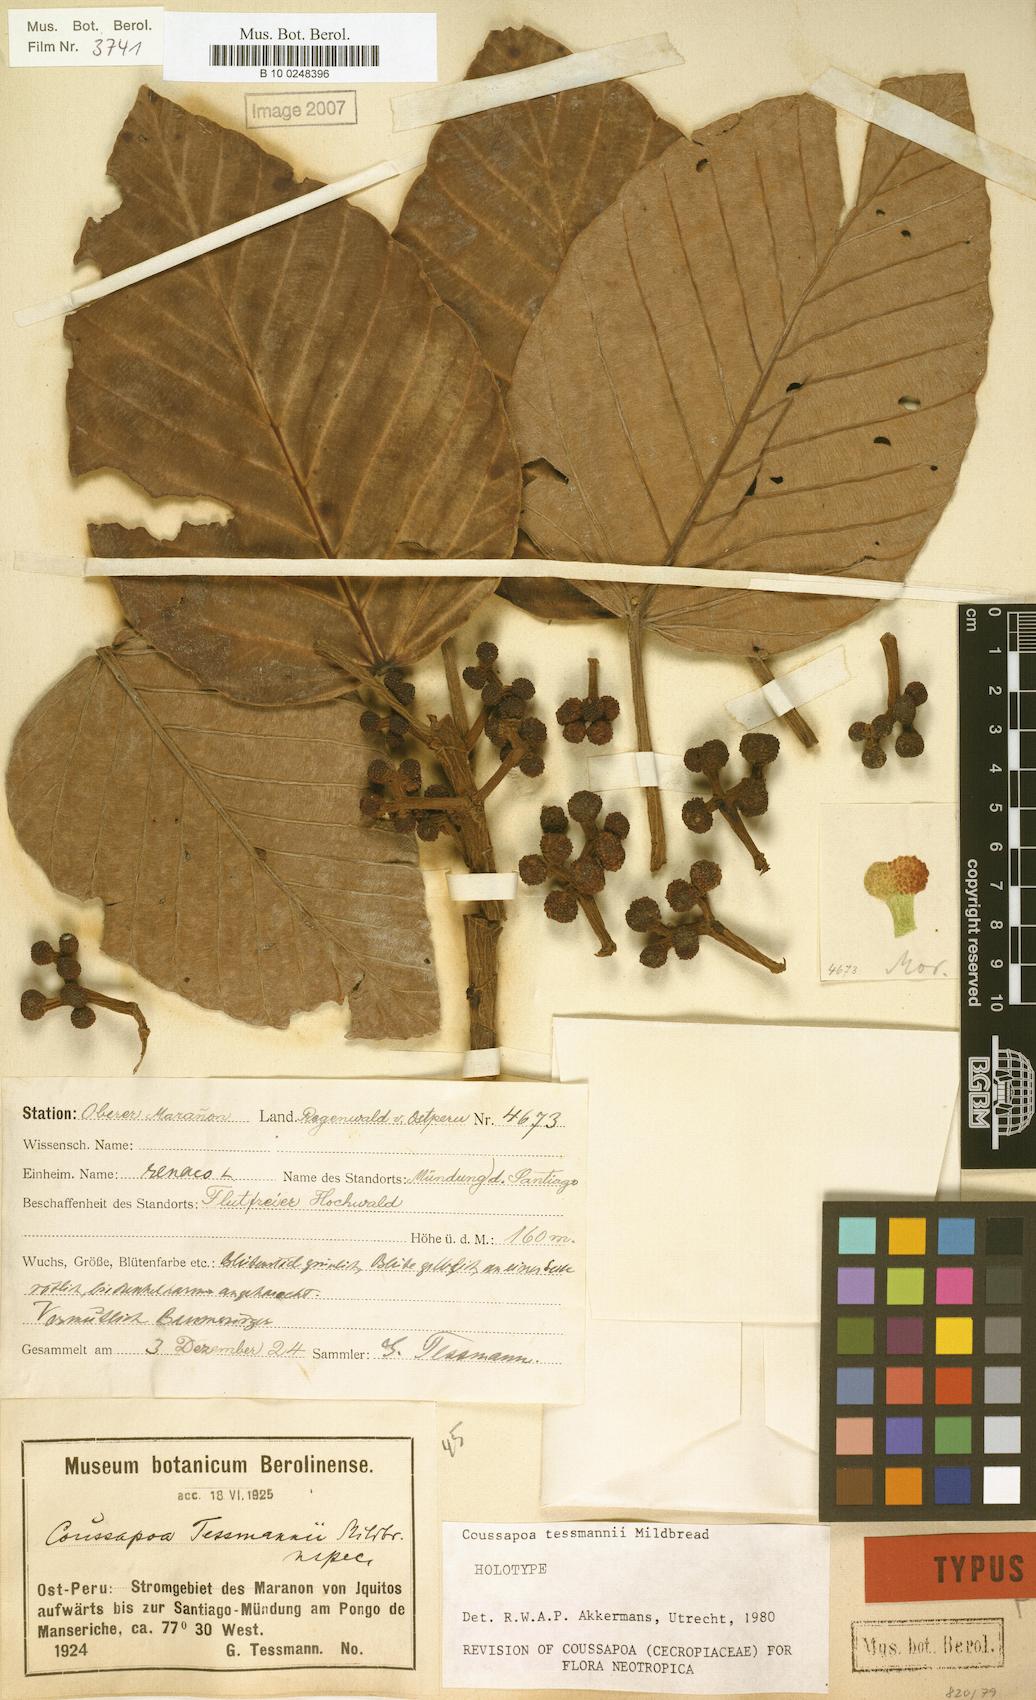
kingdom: Plantae
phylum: Tracheophyta
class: Magnoliopsida
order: Rosales
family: Urticaceae
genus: Coussapoa
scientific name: Coussapoa tessmannii
